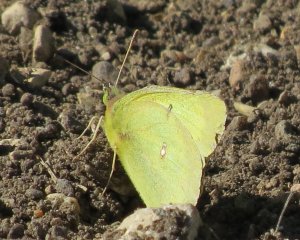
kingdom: Animalia
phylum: Arthropoda
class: Insecta
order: Lepidoptera
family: Pieridae
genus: Colias
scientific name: Colias philodice
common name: Clouded Sulphur
